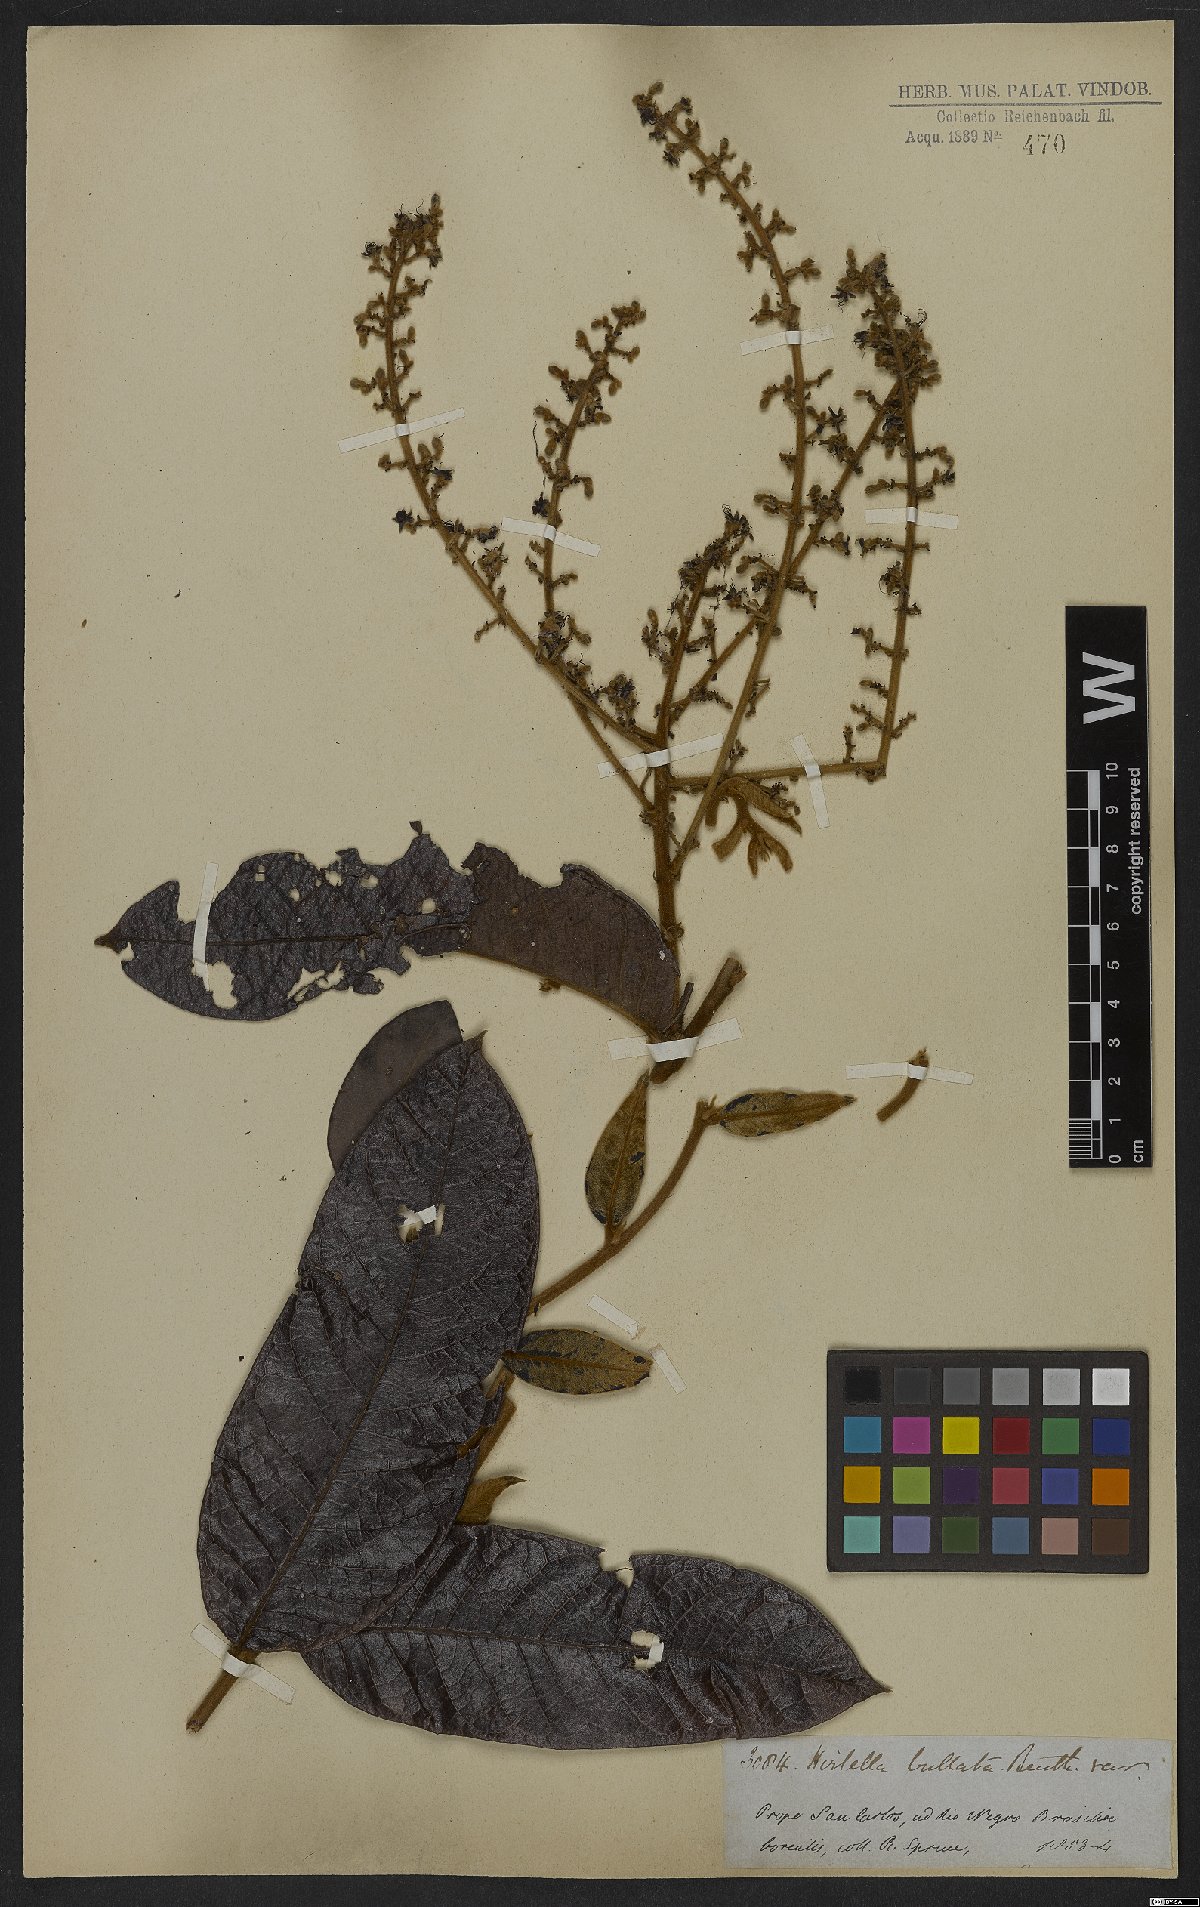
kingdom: Plantae
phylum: Tracheophyta
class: Magnoliopsida
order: Malpighiales
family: Chrysobalanaceae
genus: Hirtella
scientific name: Hirtella bullata
